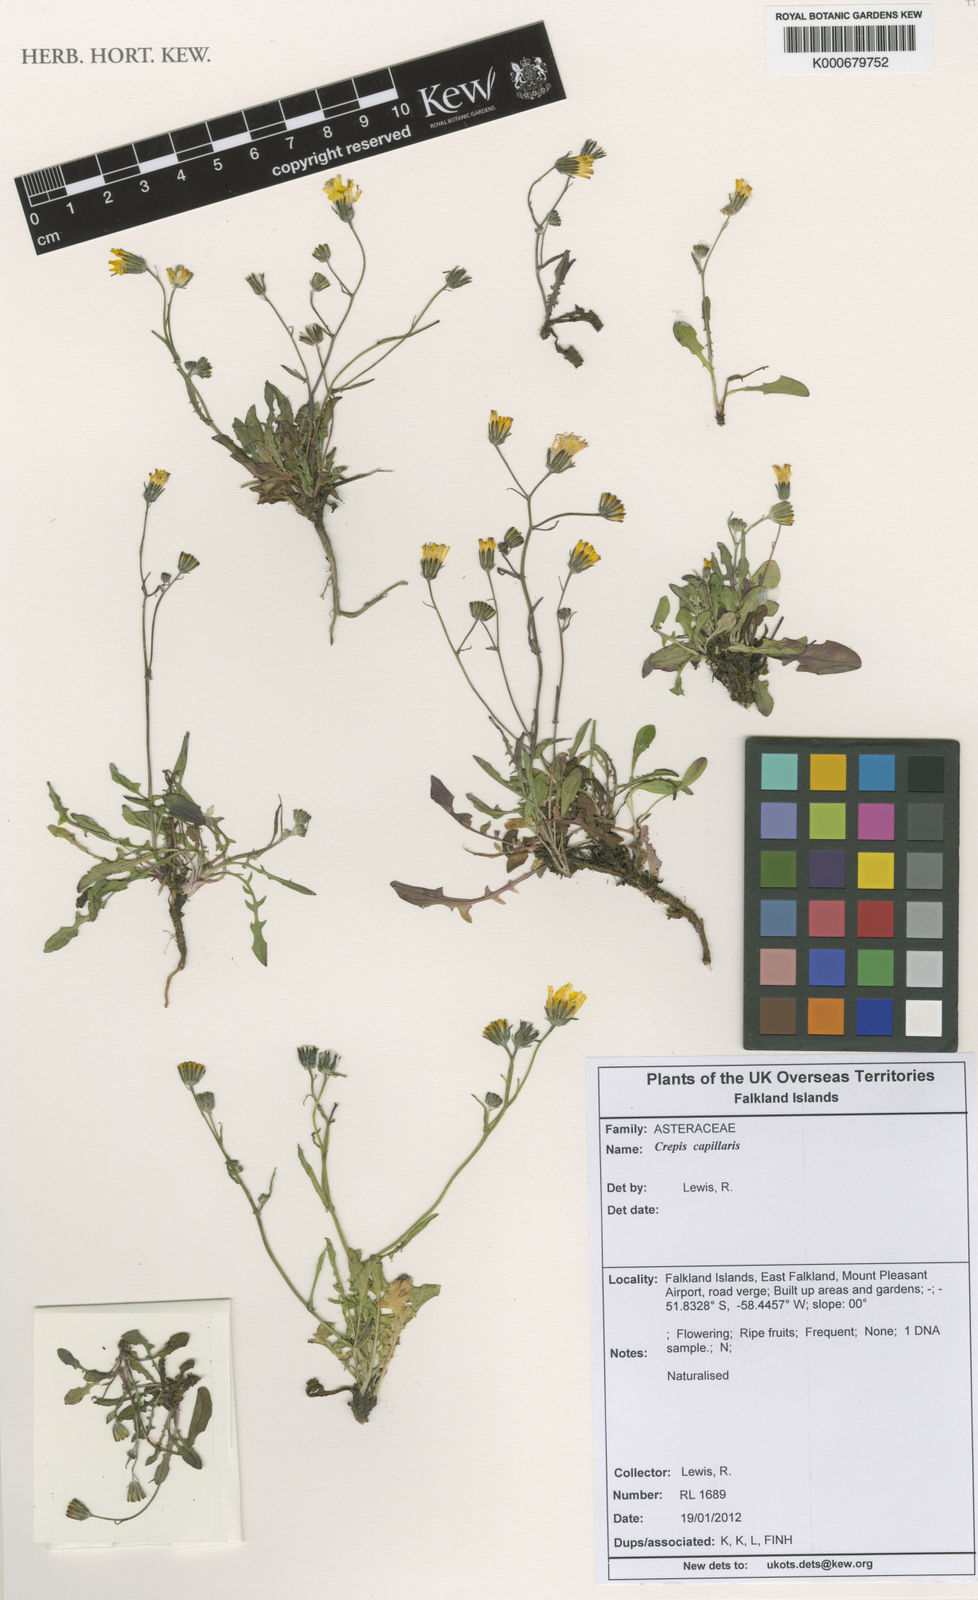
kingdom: Plantae
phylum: Tracheophyta
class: Magnoliopsida
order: Asterales
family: Asteraceae
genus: Crepis
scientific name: Crepis capillaris
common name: Smooth hawksbeard
